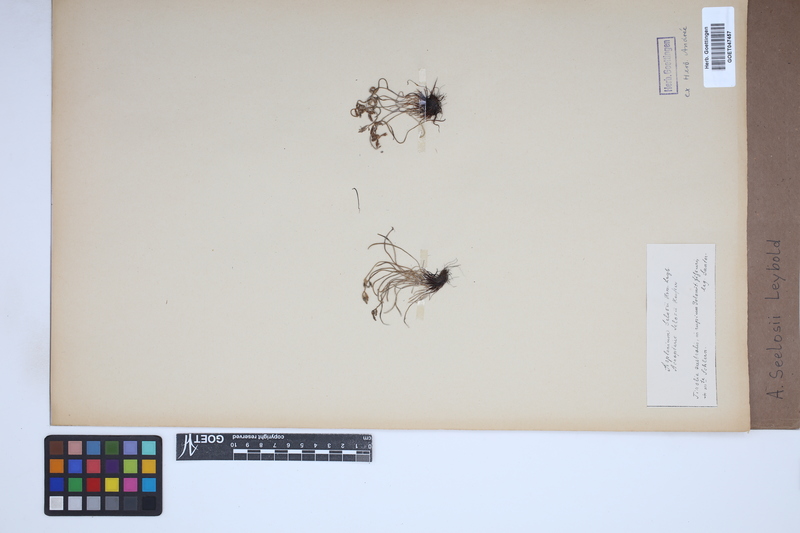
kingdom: Plantae
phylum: Tracheophyta
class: Polypodiopsida
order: Polypodiales
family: Aspleniaceae
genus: Asplenium
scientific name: Asplenium seelosii
